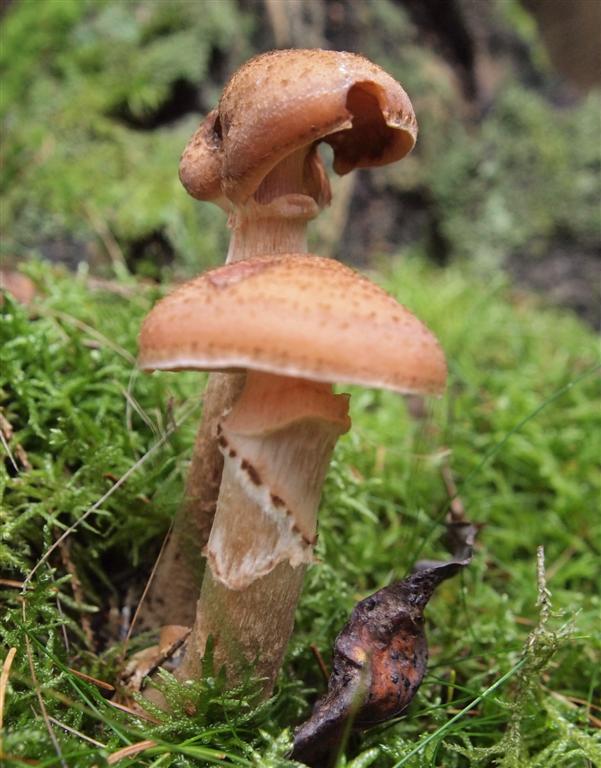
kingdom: Fungi
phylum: Basidiomycota
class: Agaricomycetes
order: Agaricales
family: Physalacriaceae
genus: Armillaria
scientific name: Armillaria ostoyae
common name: mørk honningsvamp
